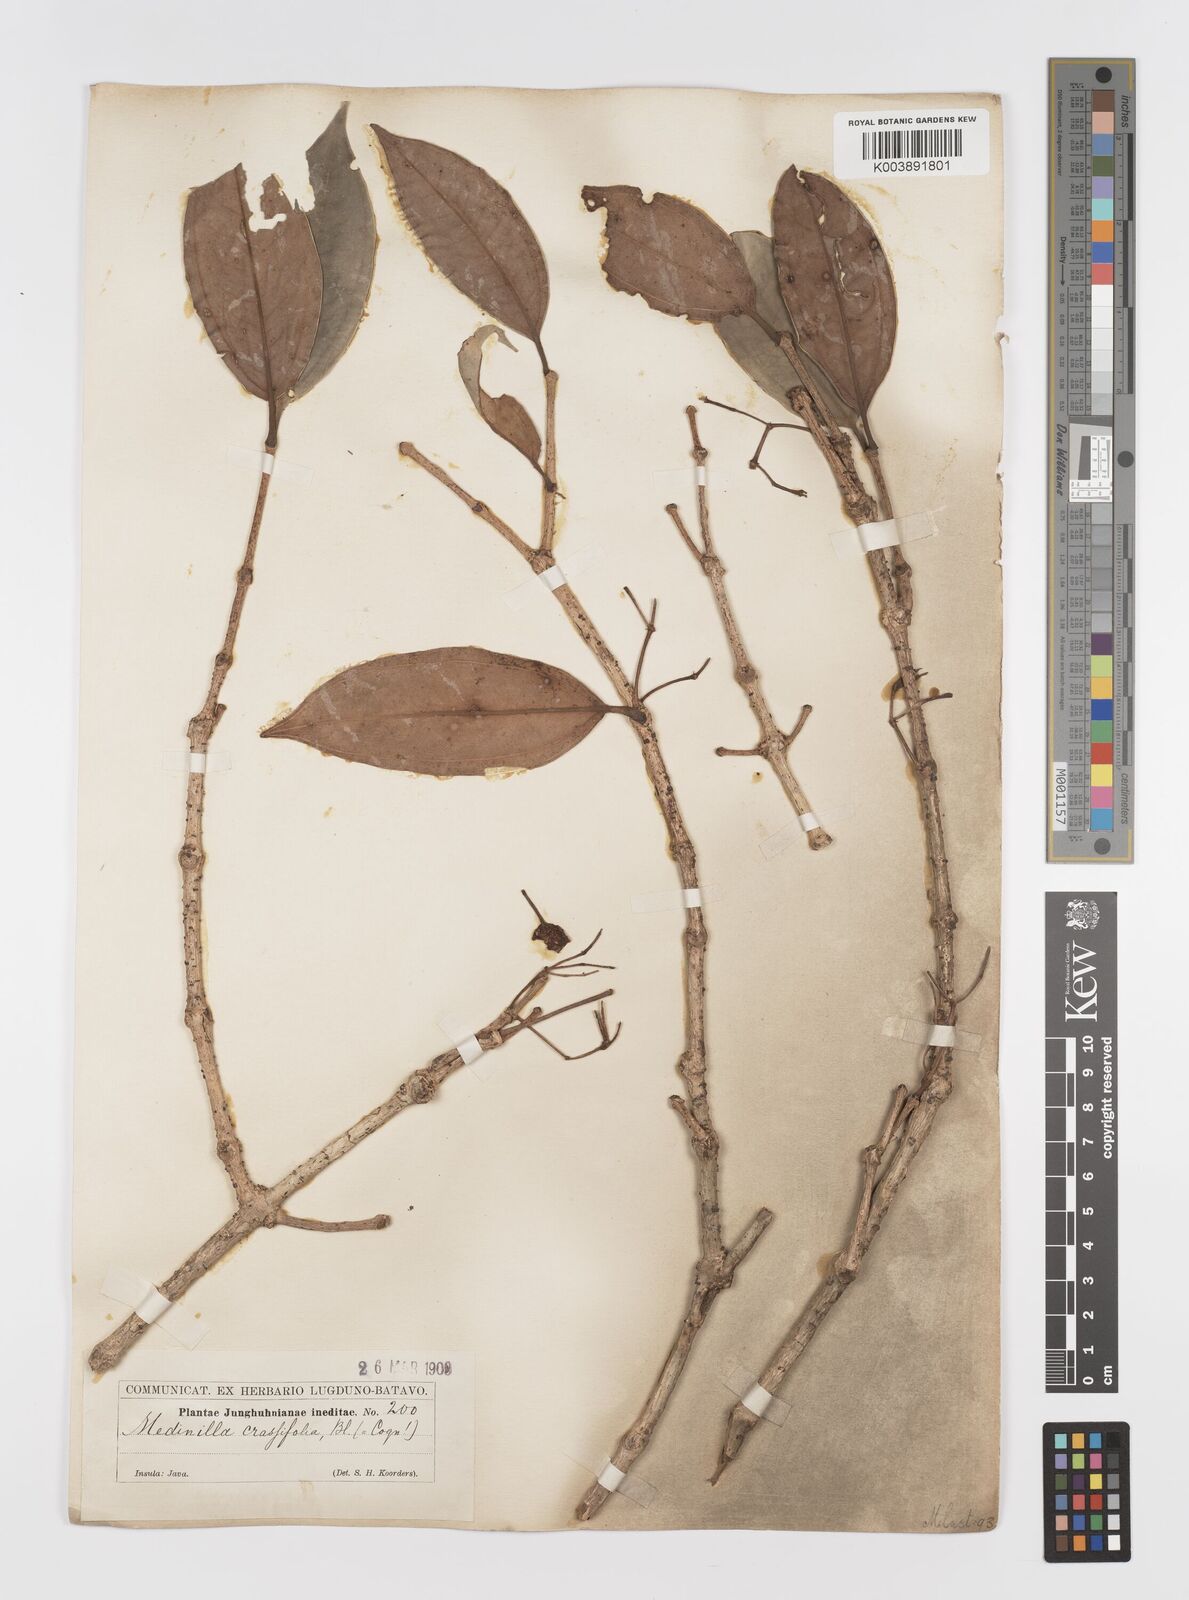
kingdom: Plantae
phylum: Tracheophyta
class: Magnoliopsida
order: Myrtales
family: Melastomataceae
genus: Medinilla
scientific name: Medinilla crassifolia
